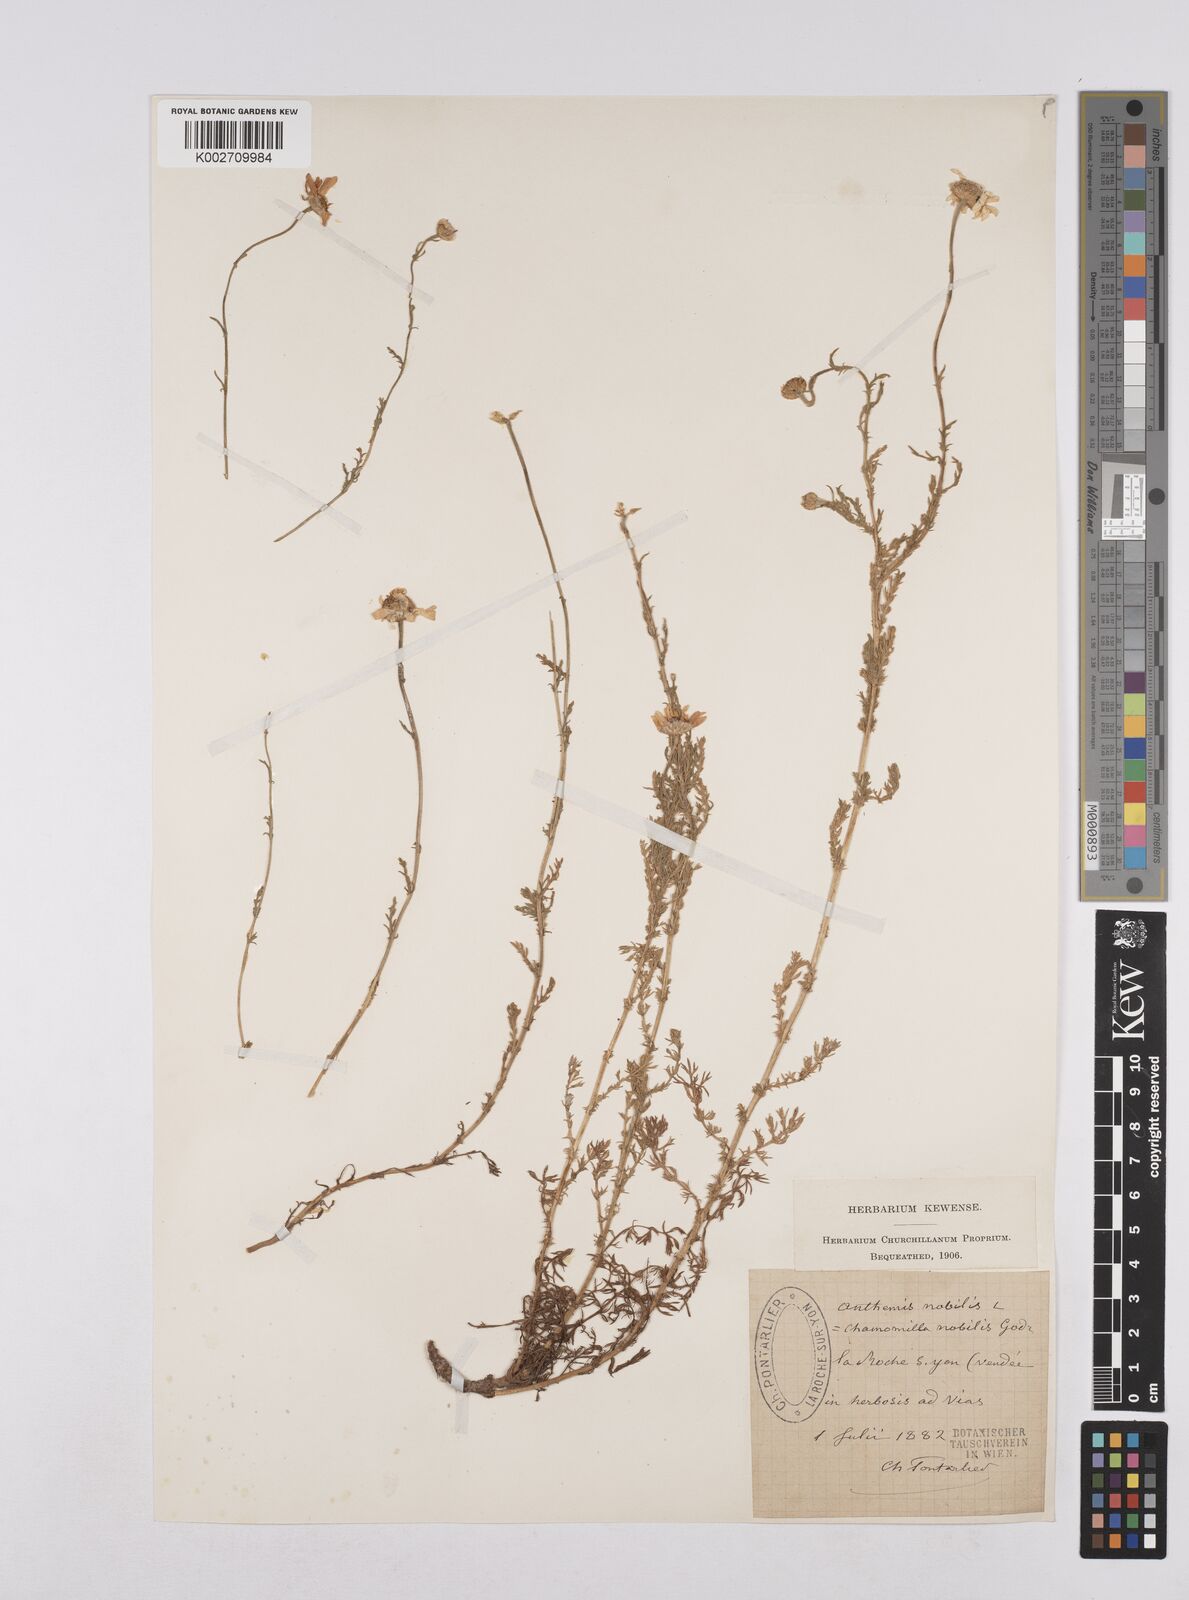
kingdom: Plantae
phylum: Tracheophyta
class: Magnoliopsida
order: Asterales
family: Asteraceae
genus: Chamaemelum
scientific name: Chamaemelum nobile
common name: Roman chamomile
